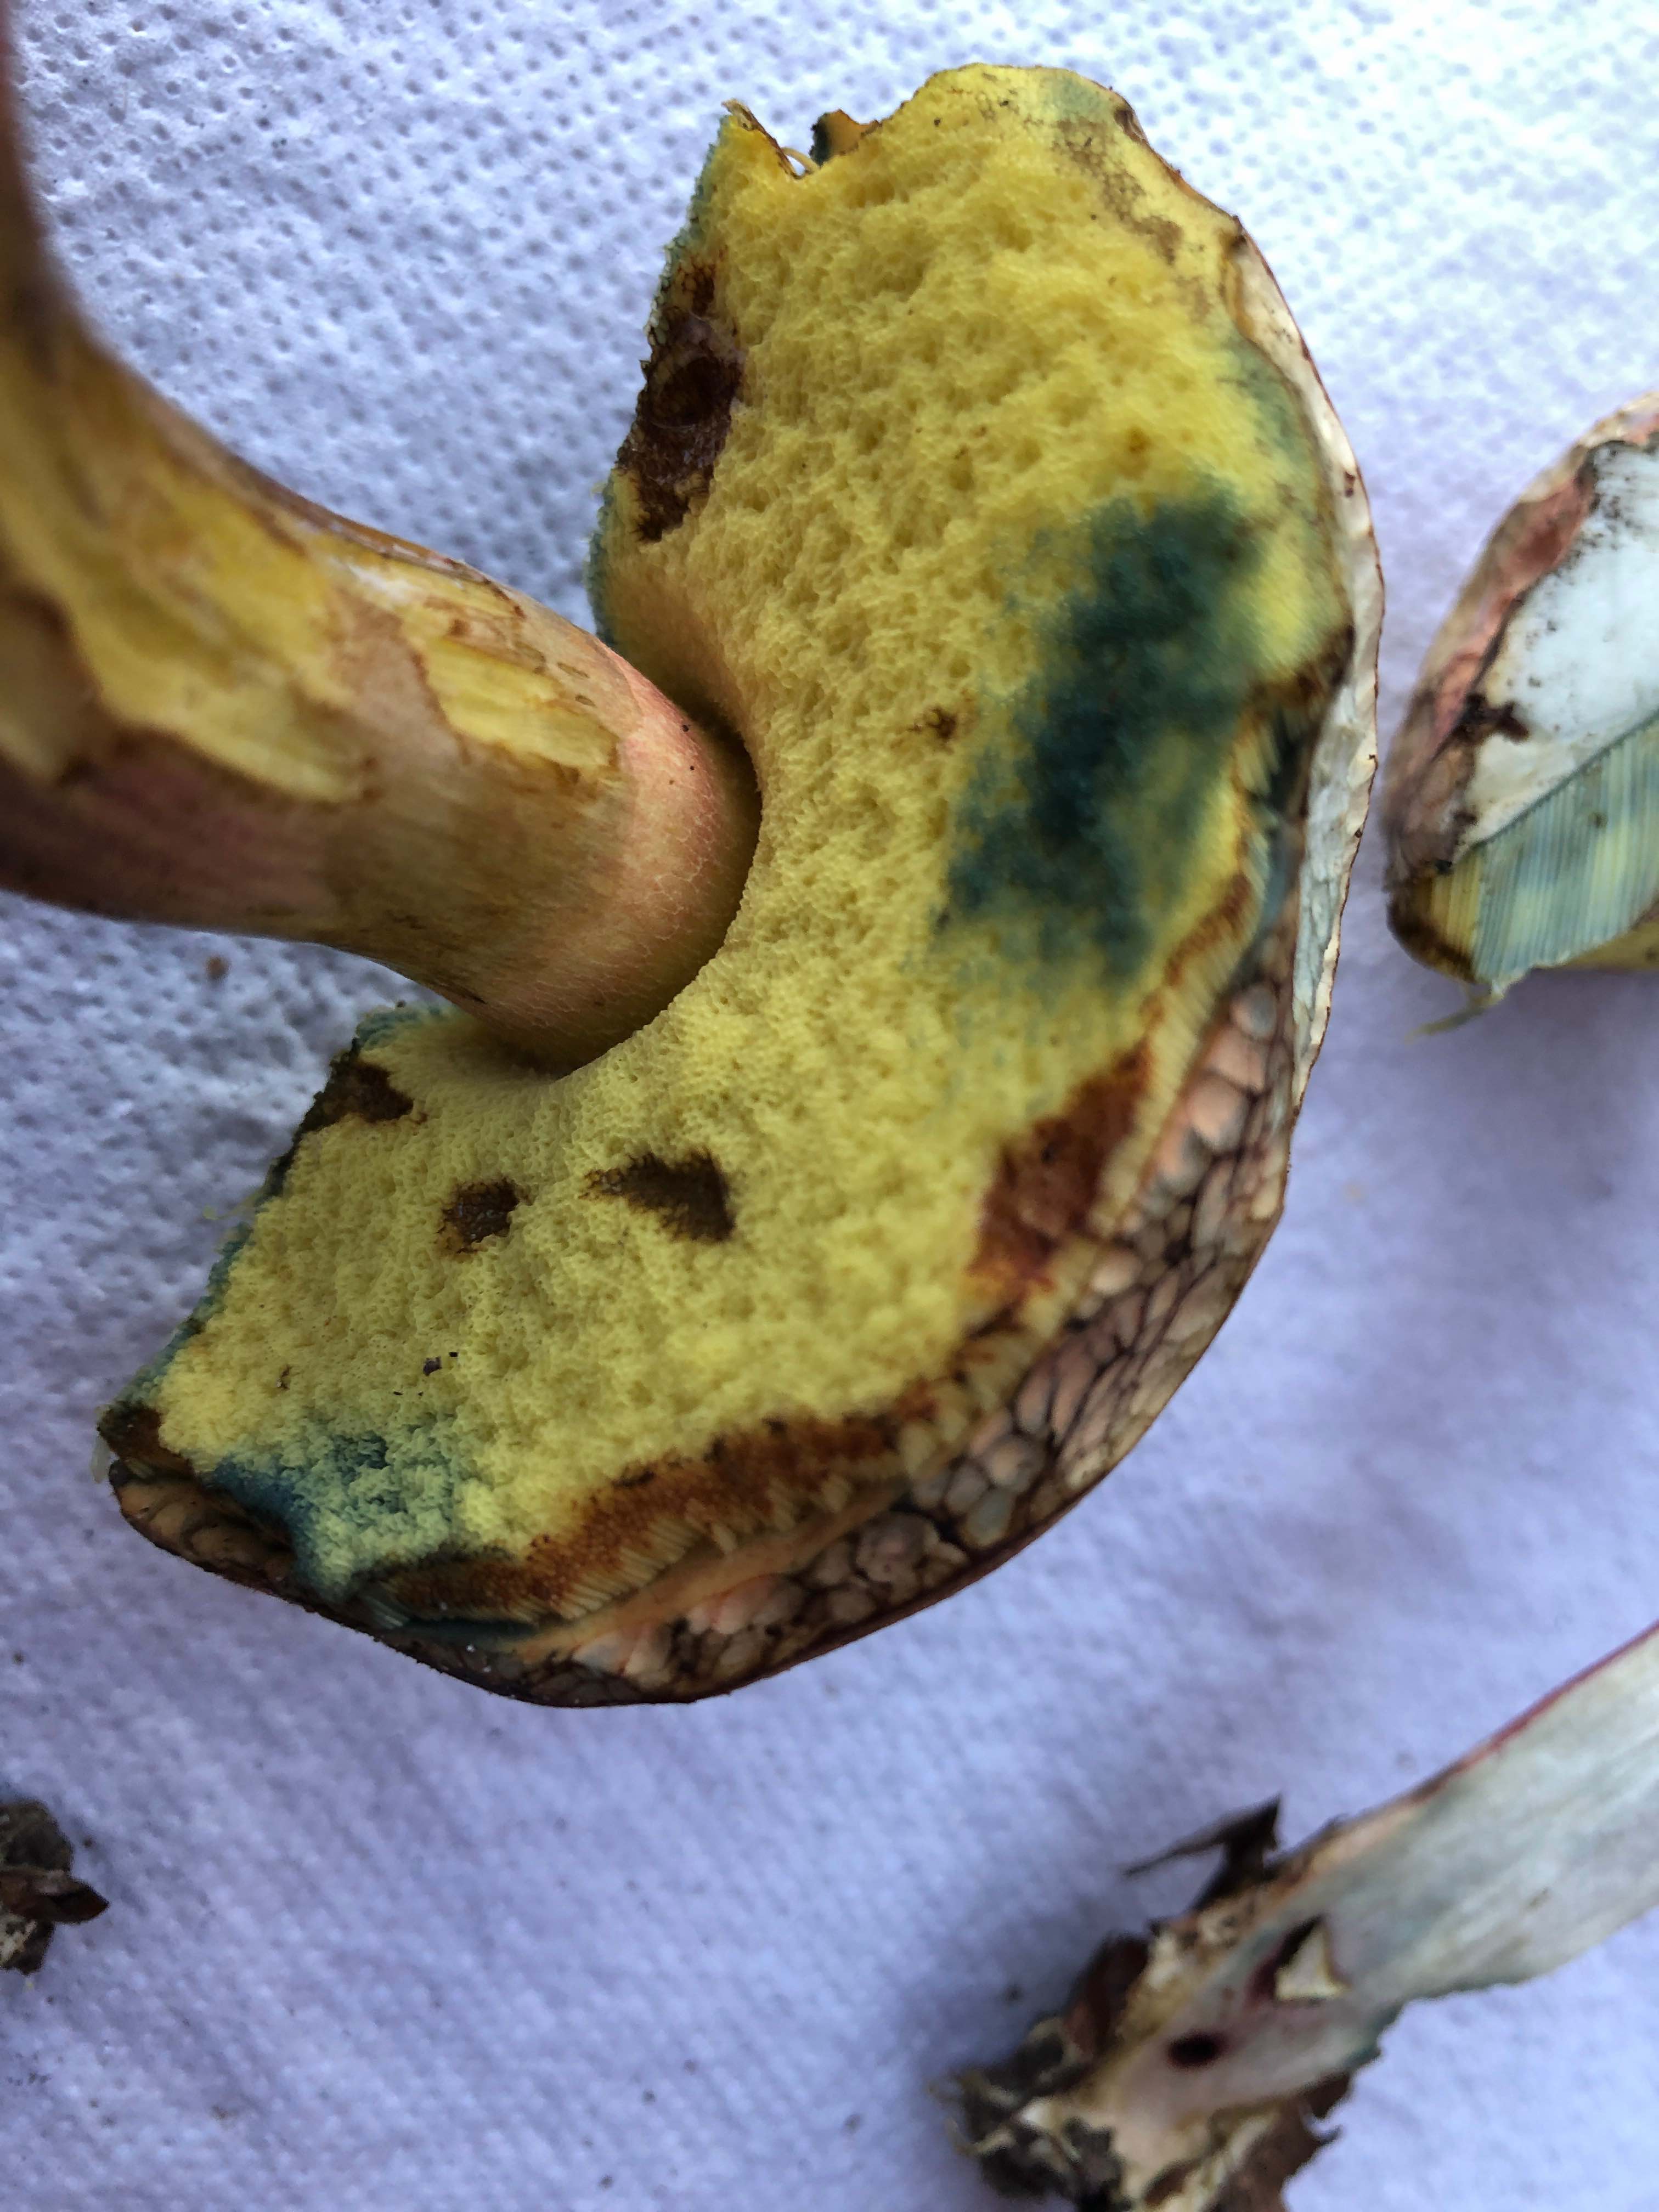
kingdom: Fungi
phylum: Basidiomycota
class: Agaricomycetes
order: Boletales
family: Boletaceae
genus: Caloboletus
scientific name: Caloboletus calopus
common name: skønfodet rørhat
